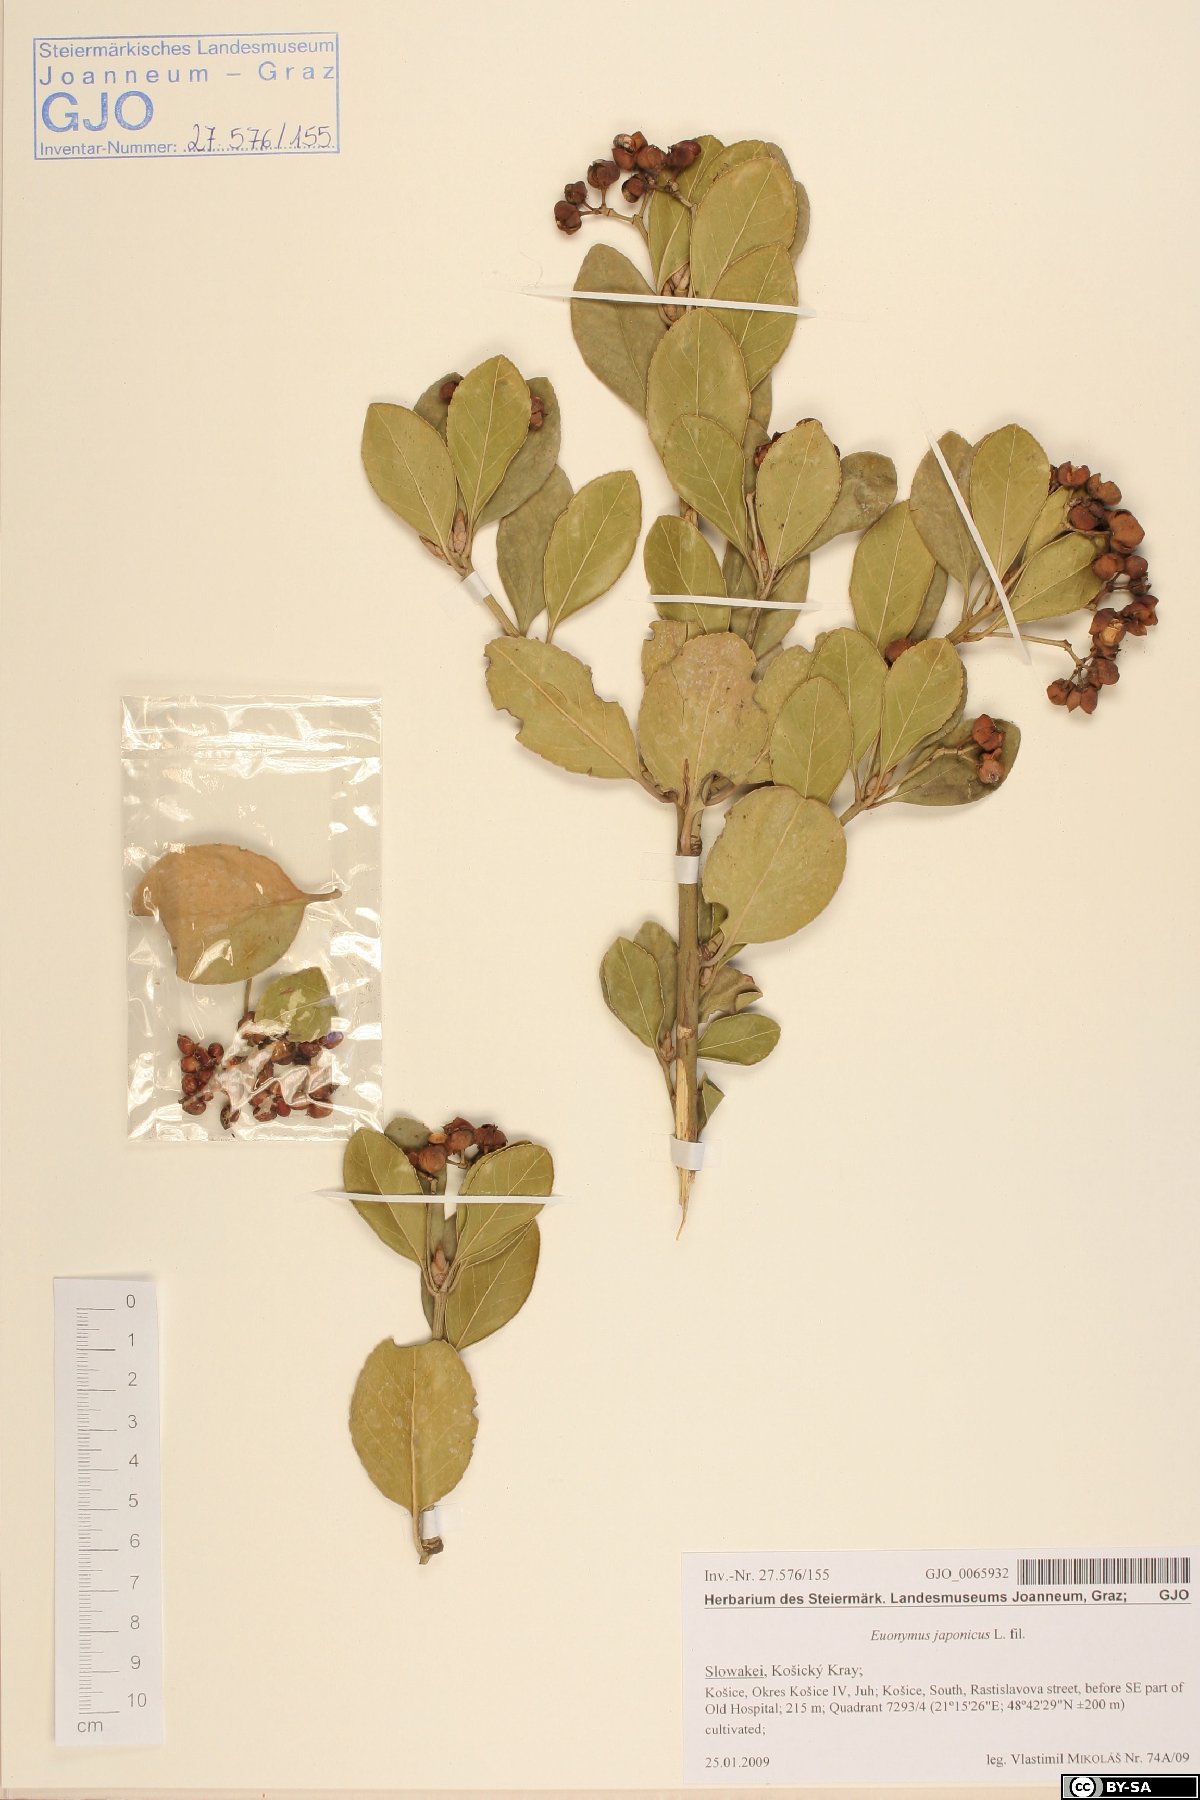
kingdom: Plantae
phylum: Tracheophyta
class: Magnoliopsida
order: Celastrales
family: Celastraceae
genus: Euonymus
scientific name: Euonymus fortunei
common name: Climbing euonymus
